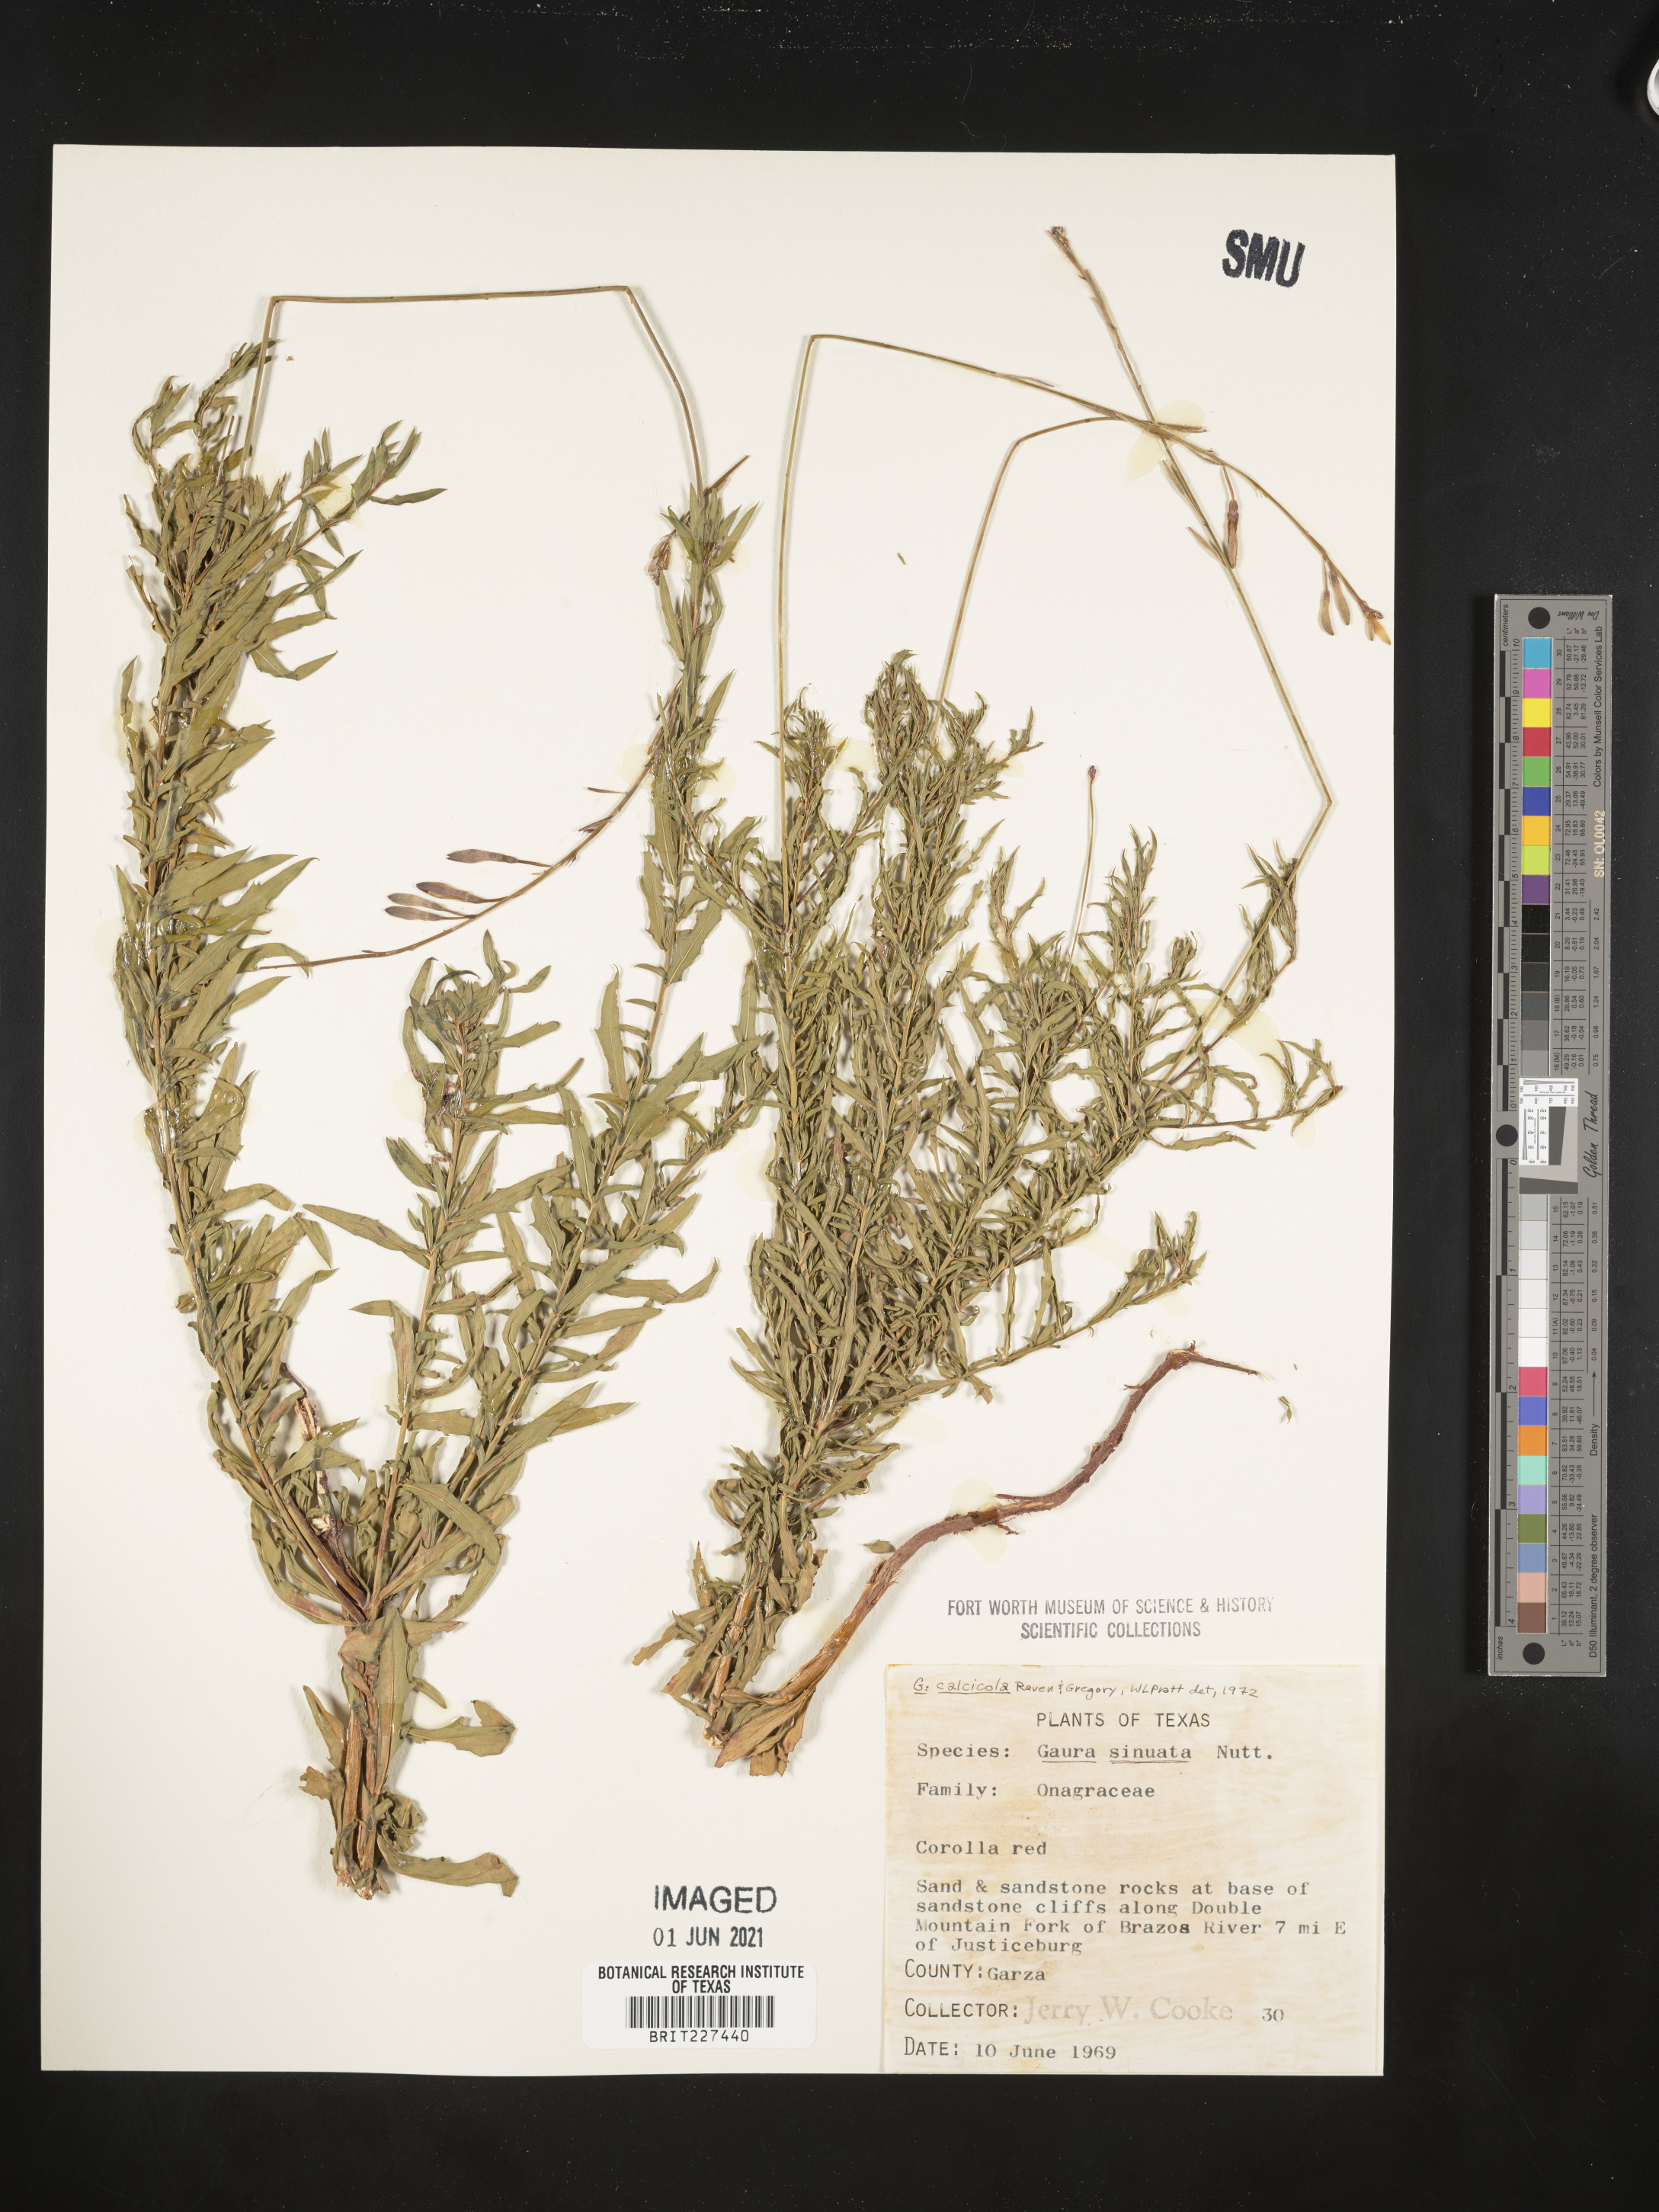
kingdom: Plantae
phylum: Tracheophyta
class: Magnoliopsida
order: Myrtales
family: Onagraceae
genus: Oenothera
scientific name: Oenothera calcicola
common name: Texas beeblossom
